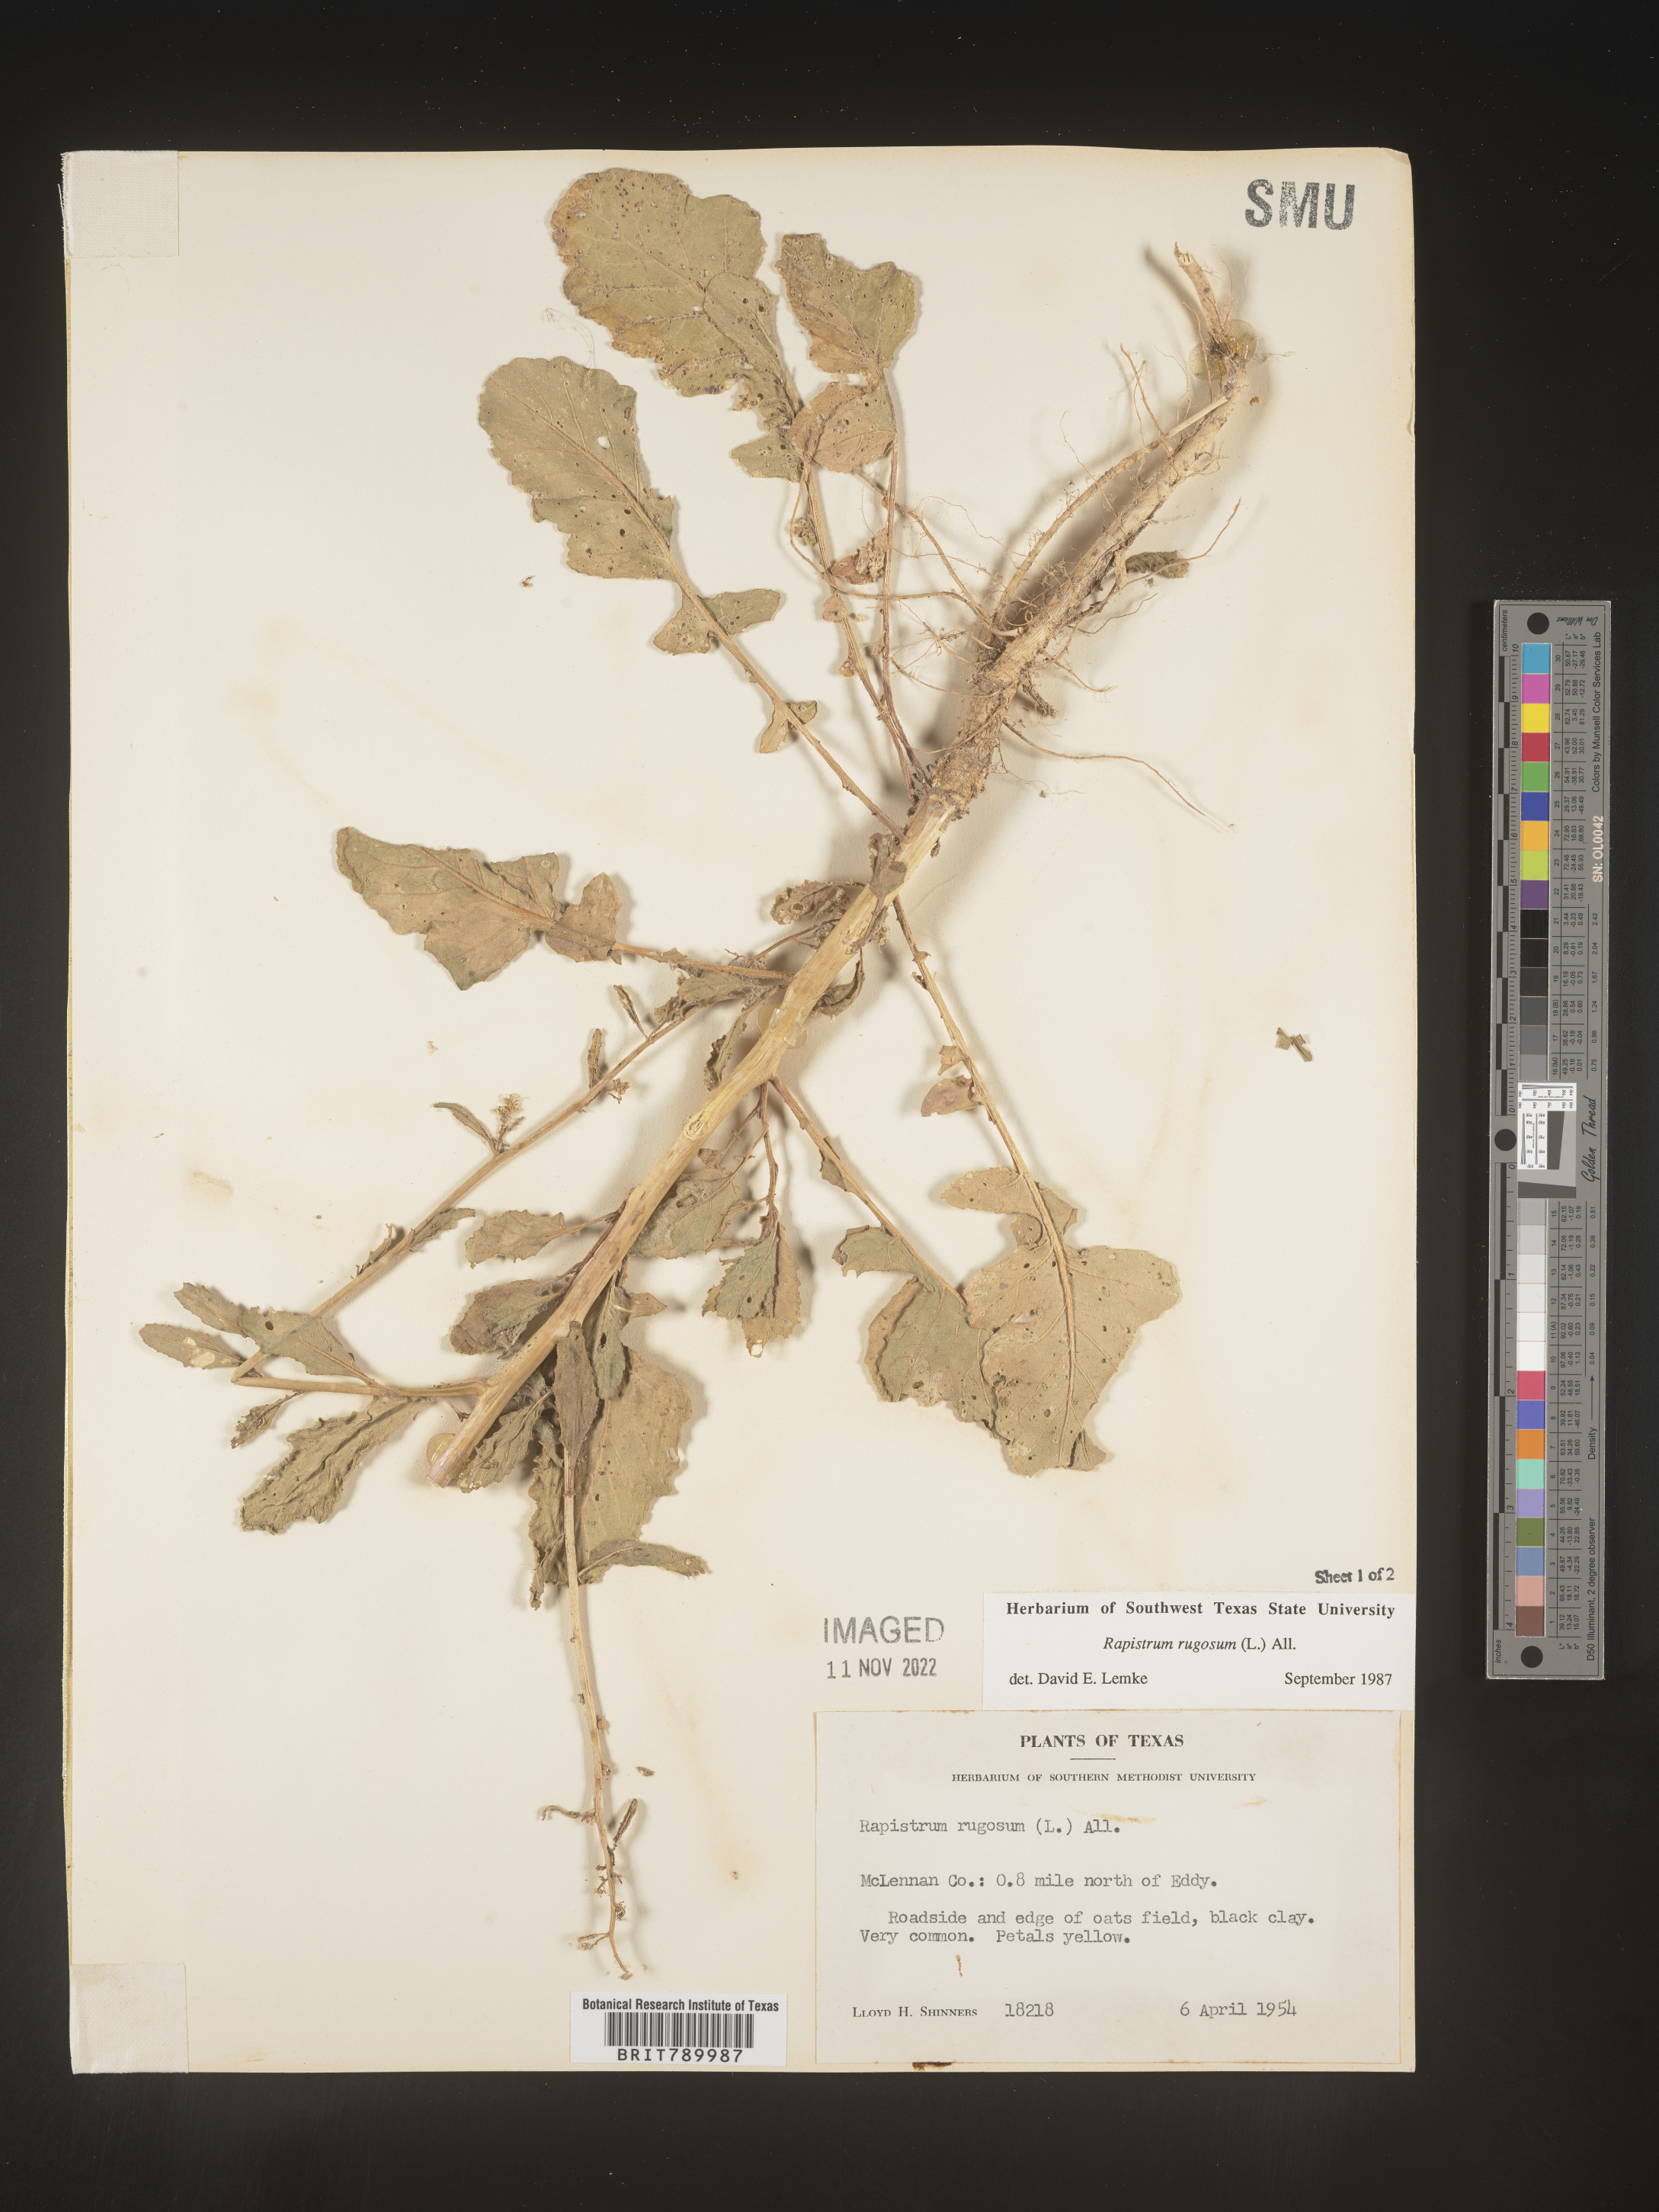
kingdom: Plantae
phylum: Tracheophyta
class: Magnoliopsida
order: Brassicales
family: Brassicaceae
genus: Rapistrum
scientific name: Rapistrum rugosum
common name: Annual bastardcabbage
